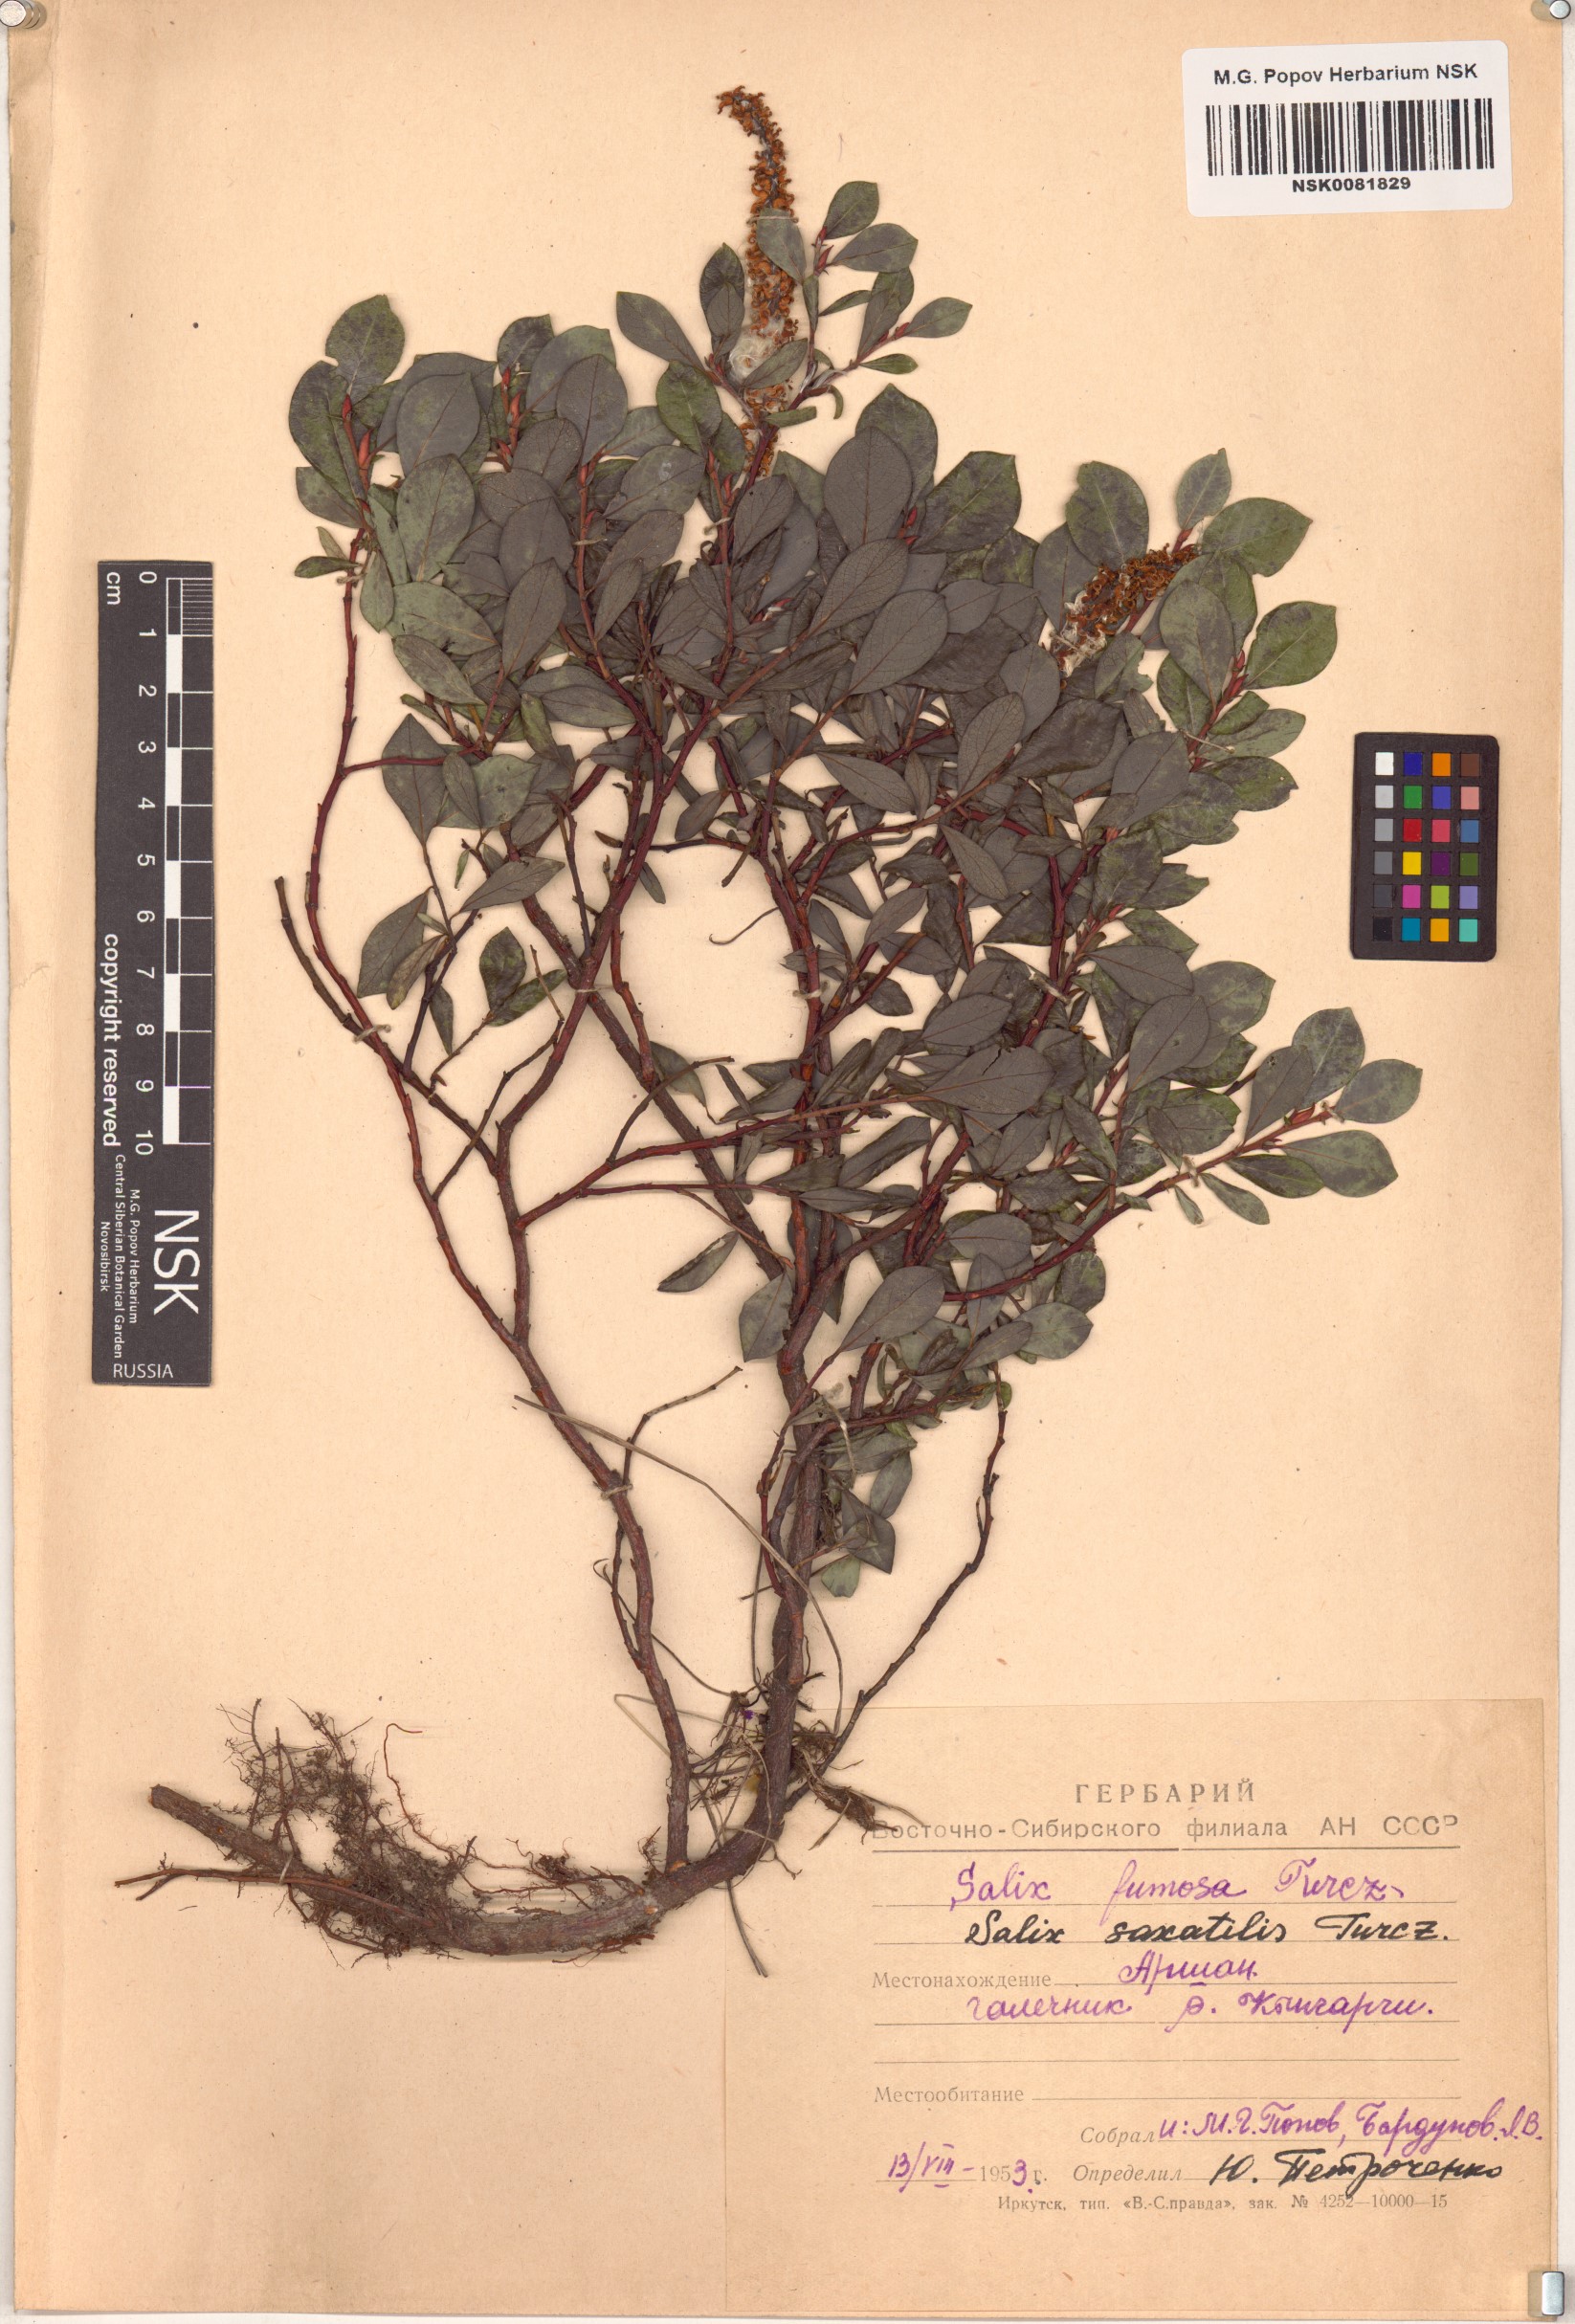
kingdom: Plantae
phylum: Tracheophyta
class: Magnoliopsida
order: Malpighiales
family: Salicaceae
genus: Salix
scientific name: Salix saxatilis
